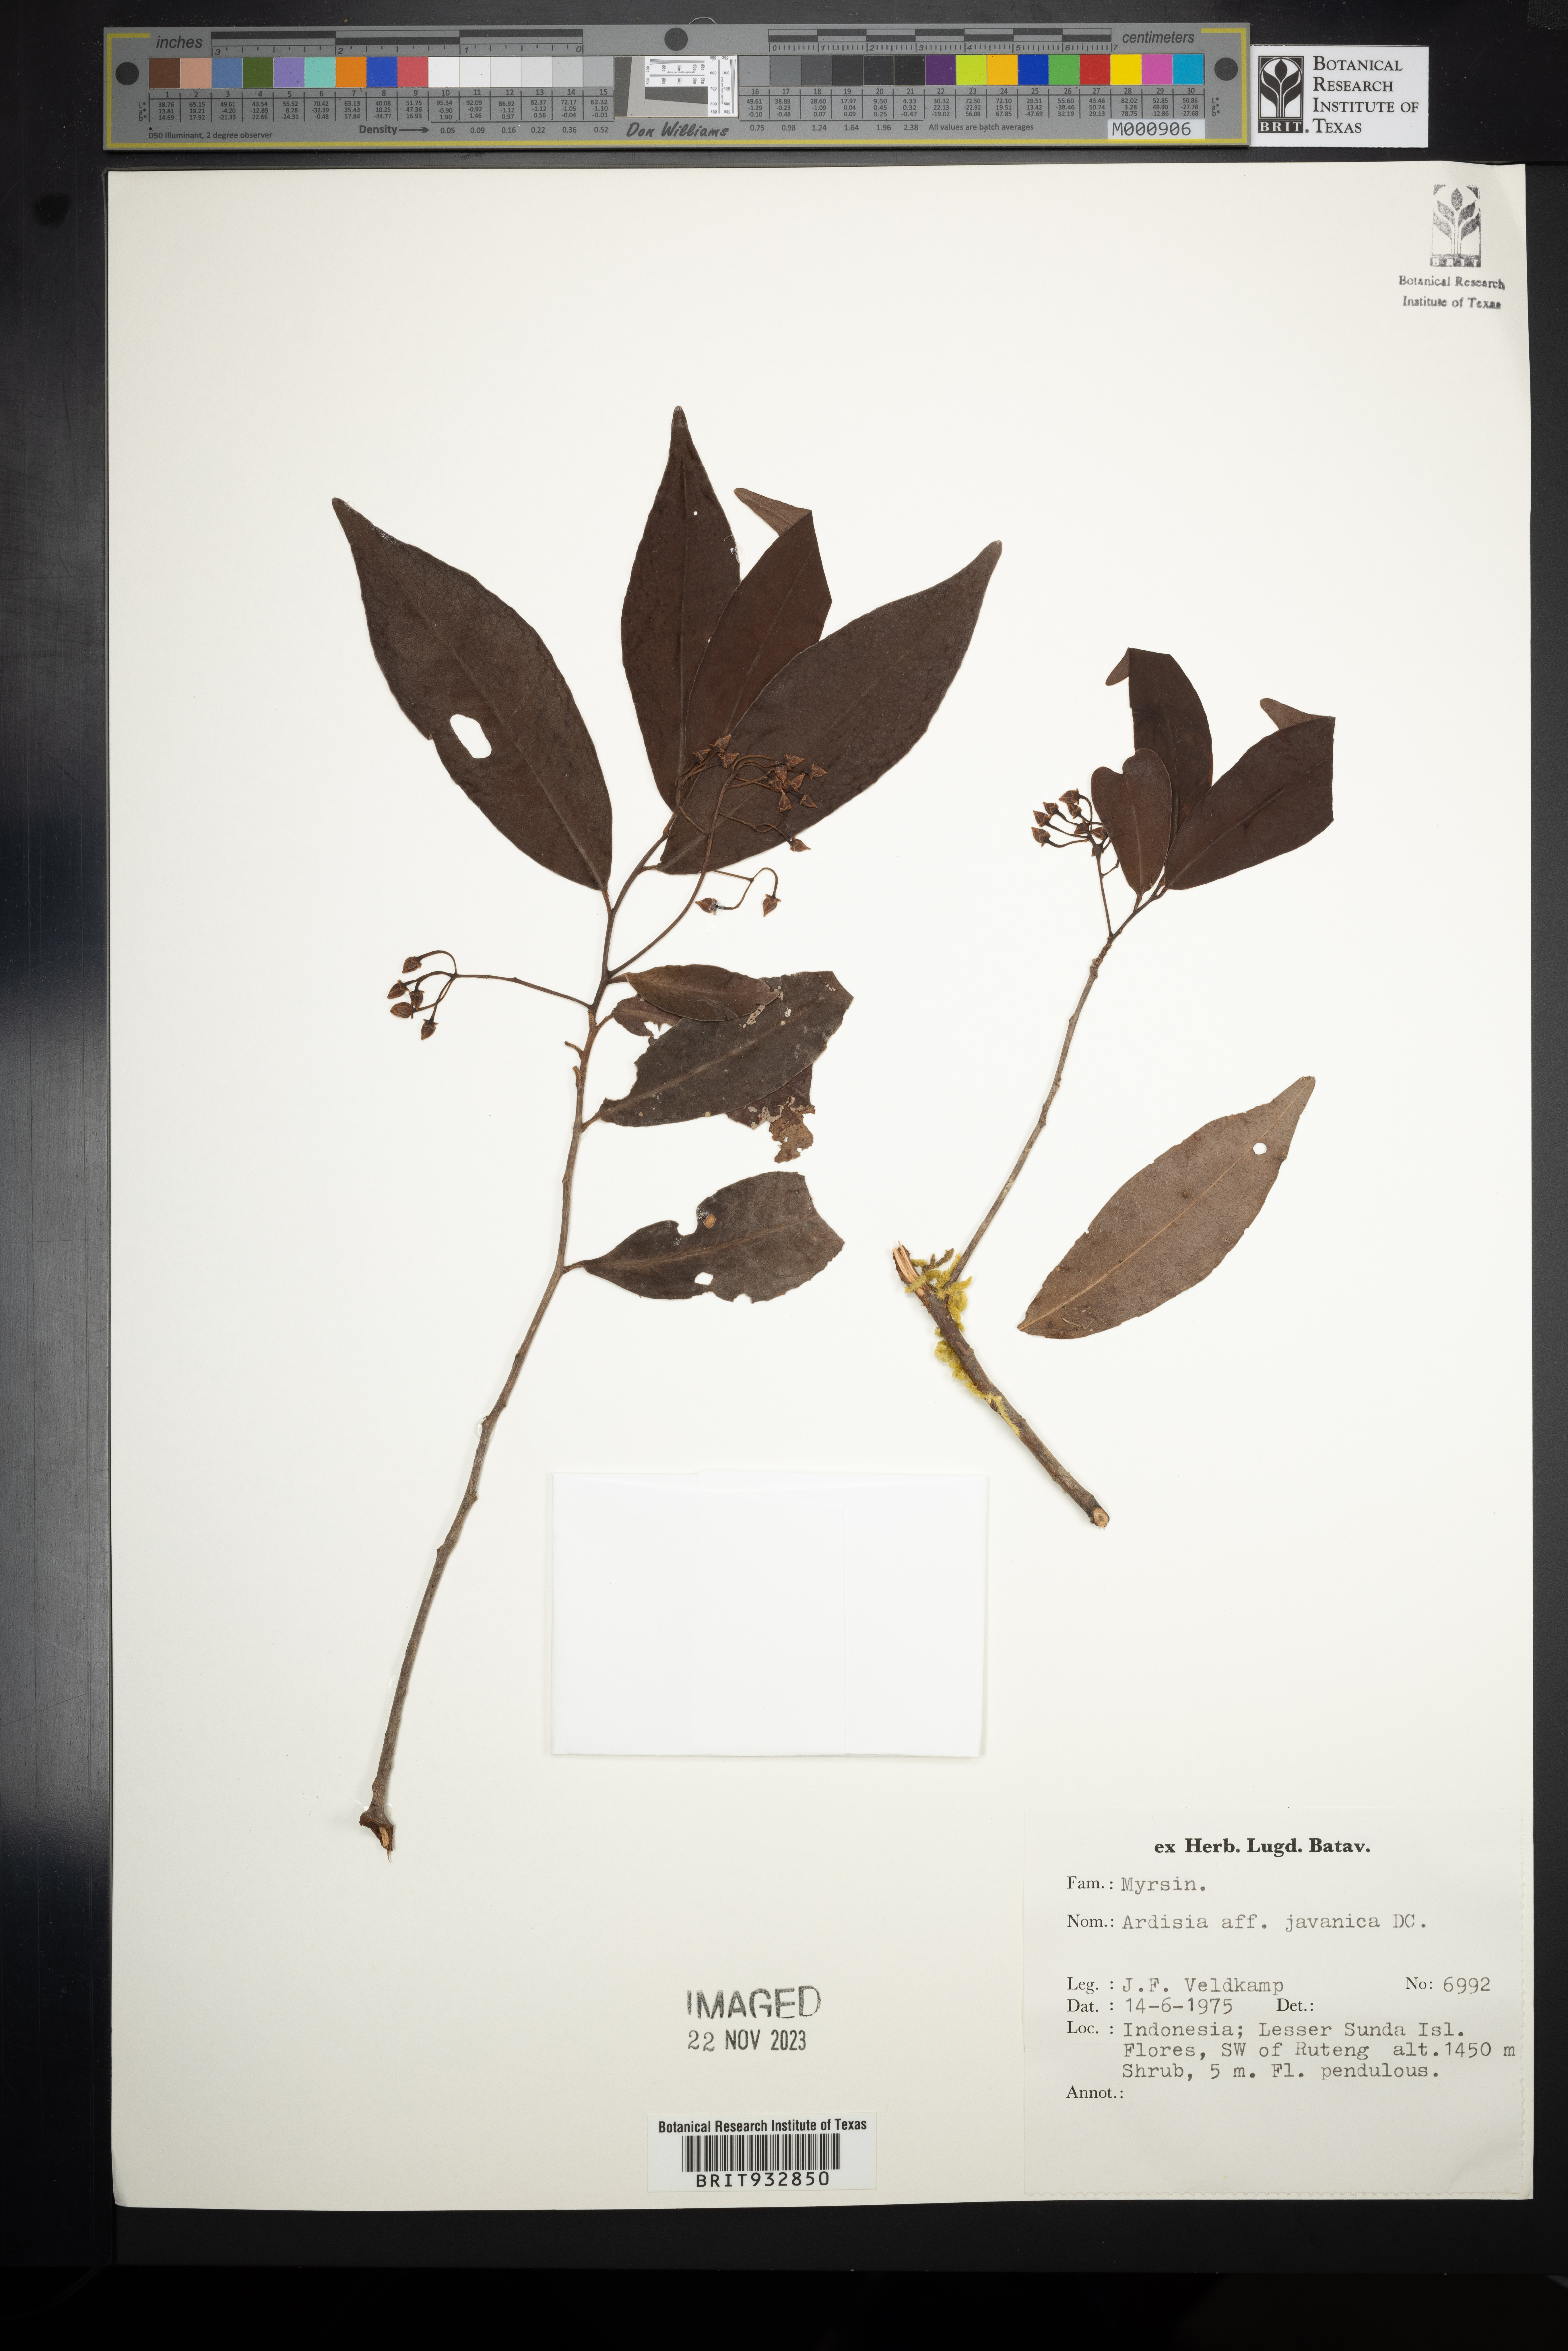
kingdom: Plantae
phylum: Tracheophyta
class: Magnoliopsida
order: Ericales
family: Primulaceae
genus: Ardisia
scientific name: Ardisia
